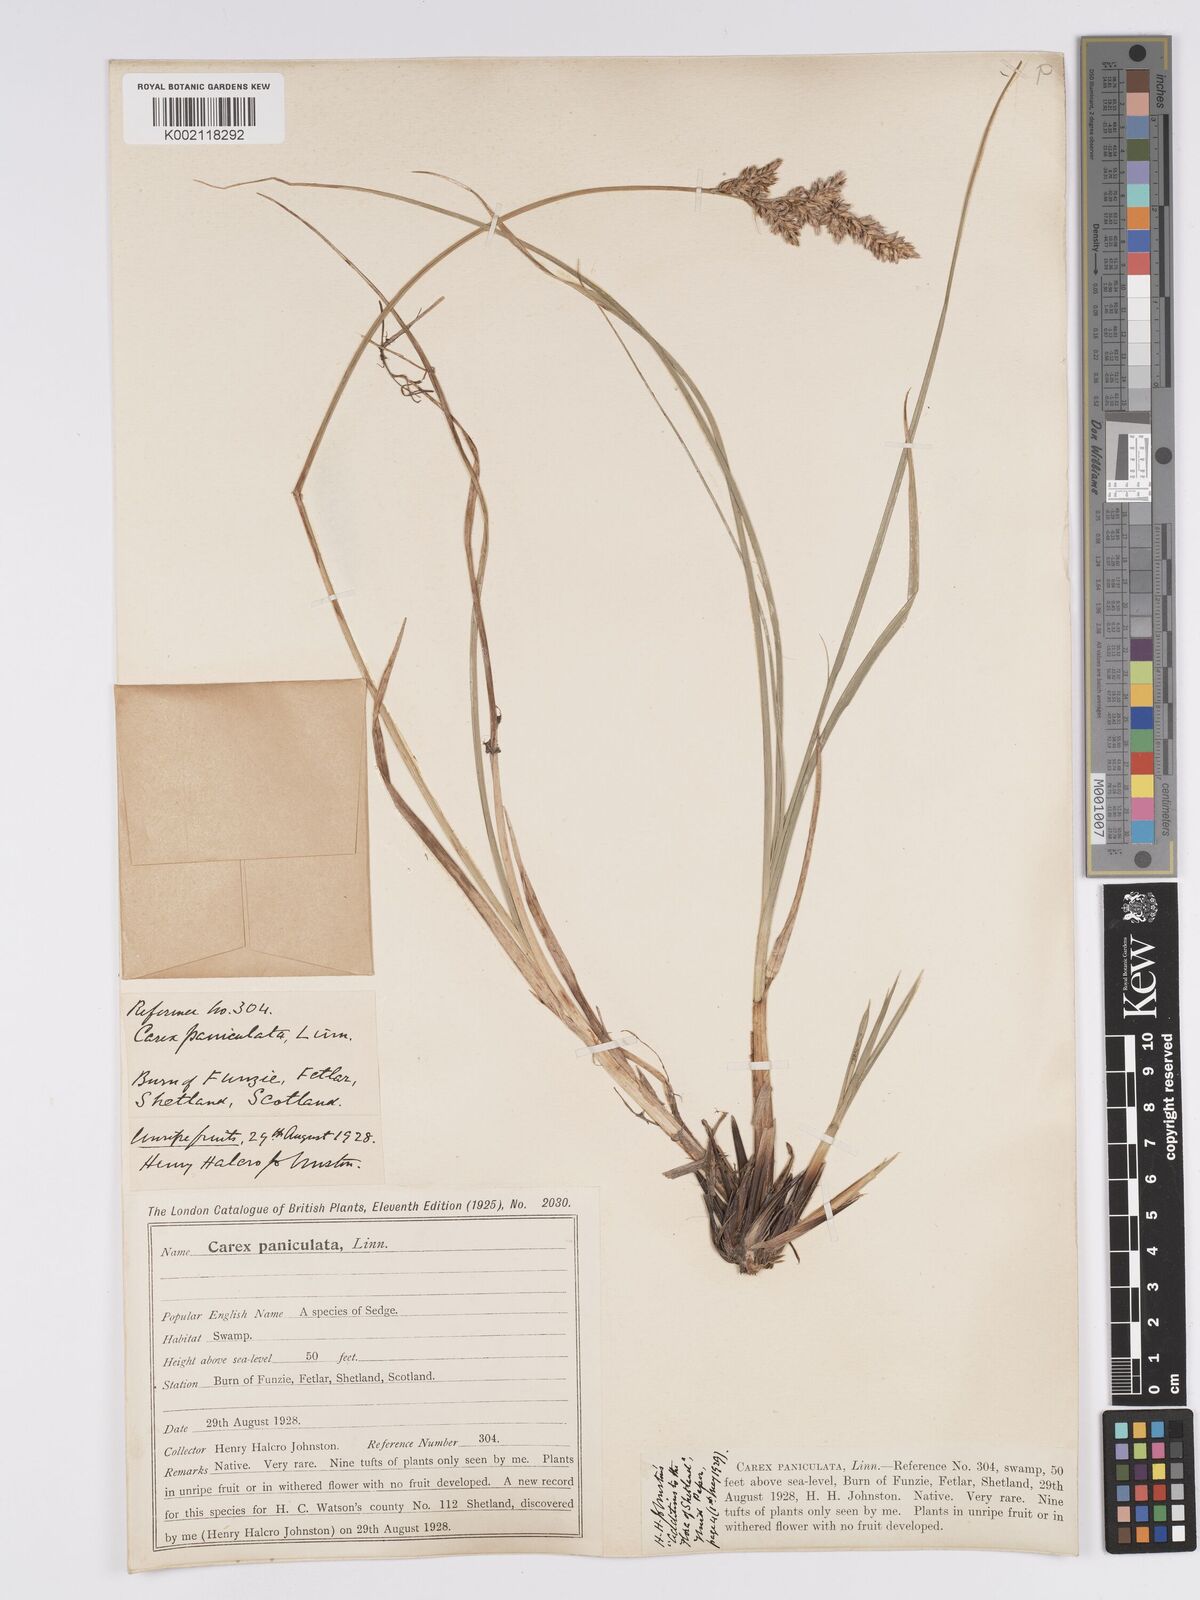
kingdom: Plantae
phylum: Tracheophyta
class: Liliopsida
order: Poales
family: Cyperaceae
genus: Carex
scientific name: Carex paniculata
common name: Greater tussock-sedge
